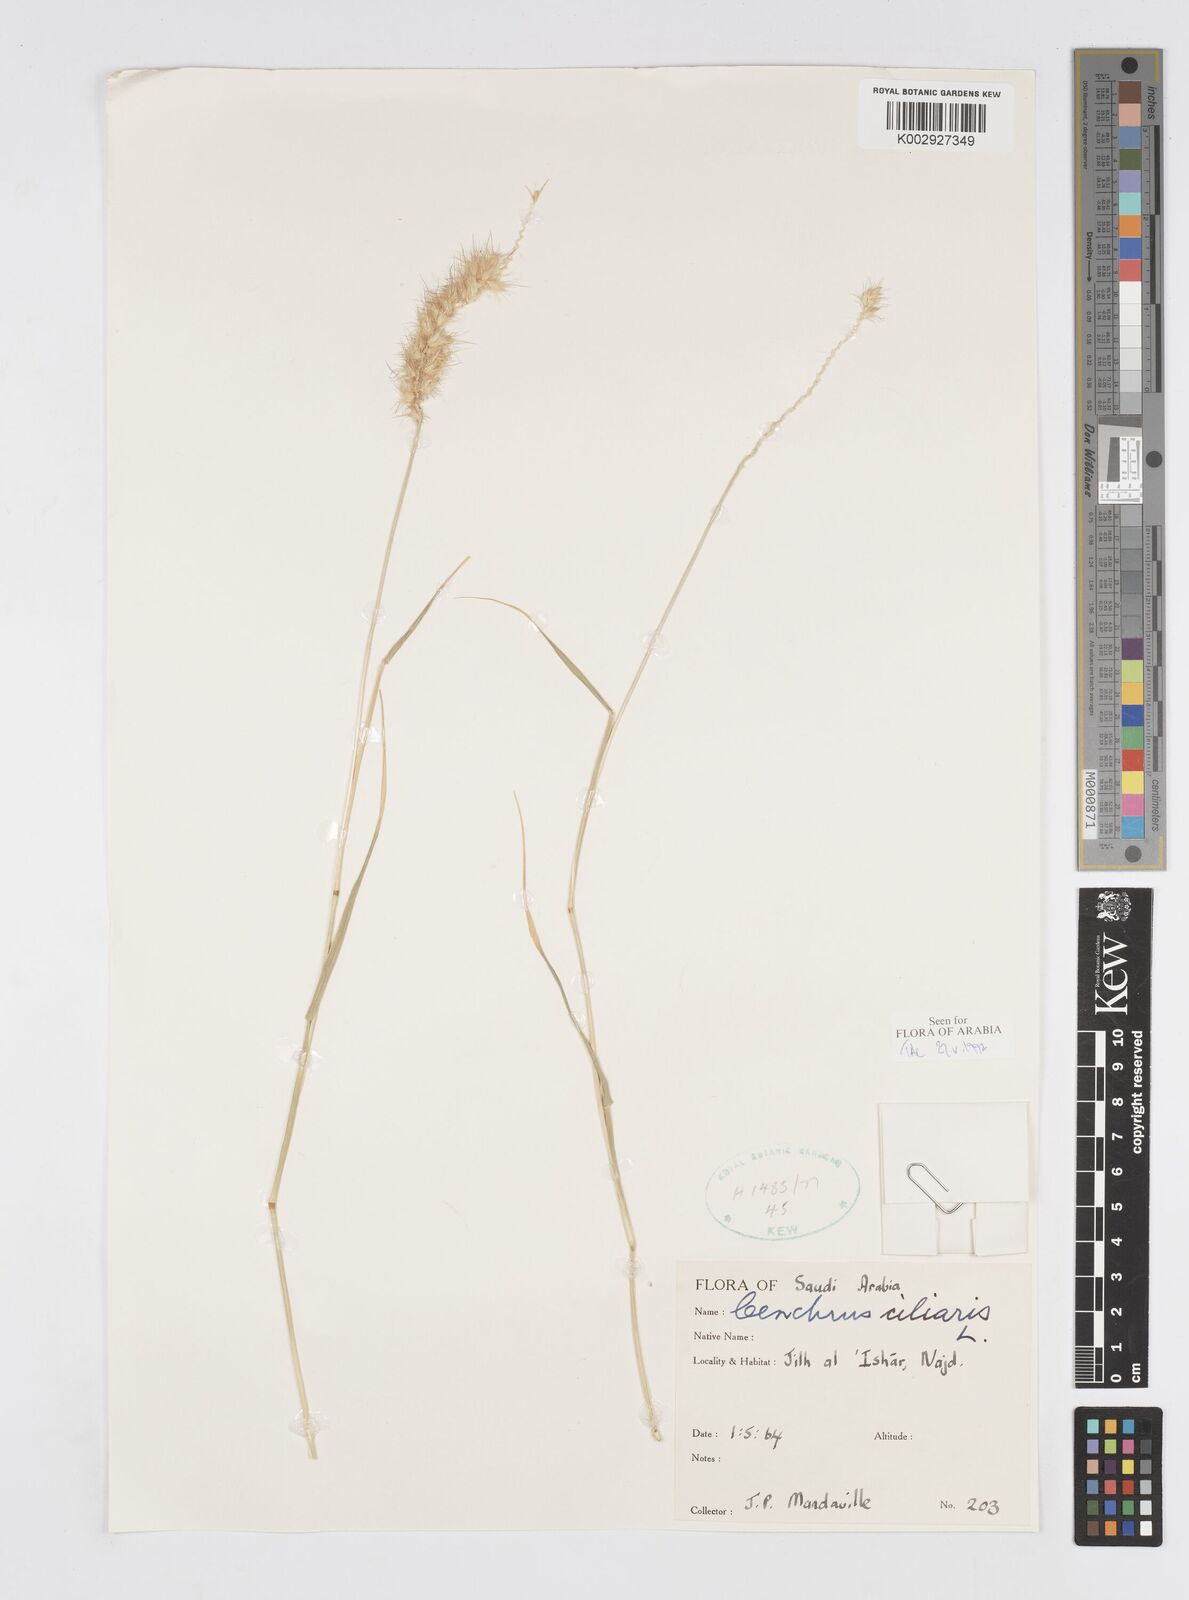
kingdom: Plantae
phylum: Tracheophyta
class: Liliopsida
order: Poales
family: Poaceae
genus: Cenchrus
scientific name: Cenchrus ciliaris
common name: Buffelgrass
